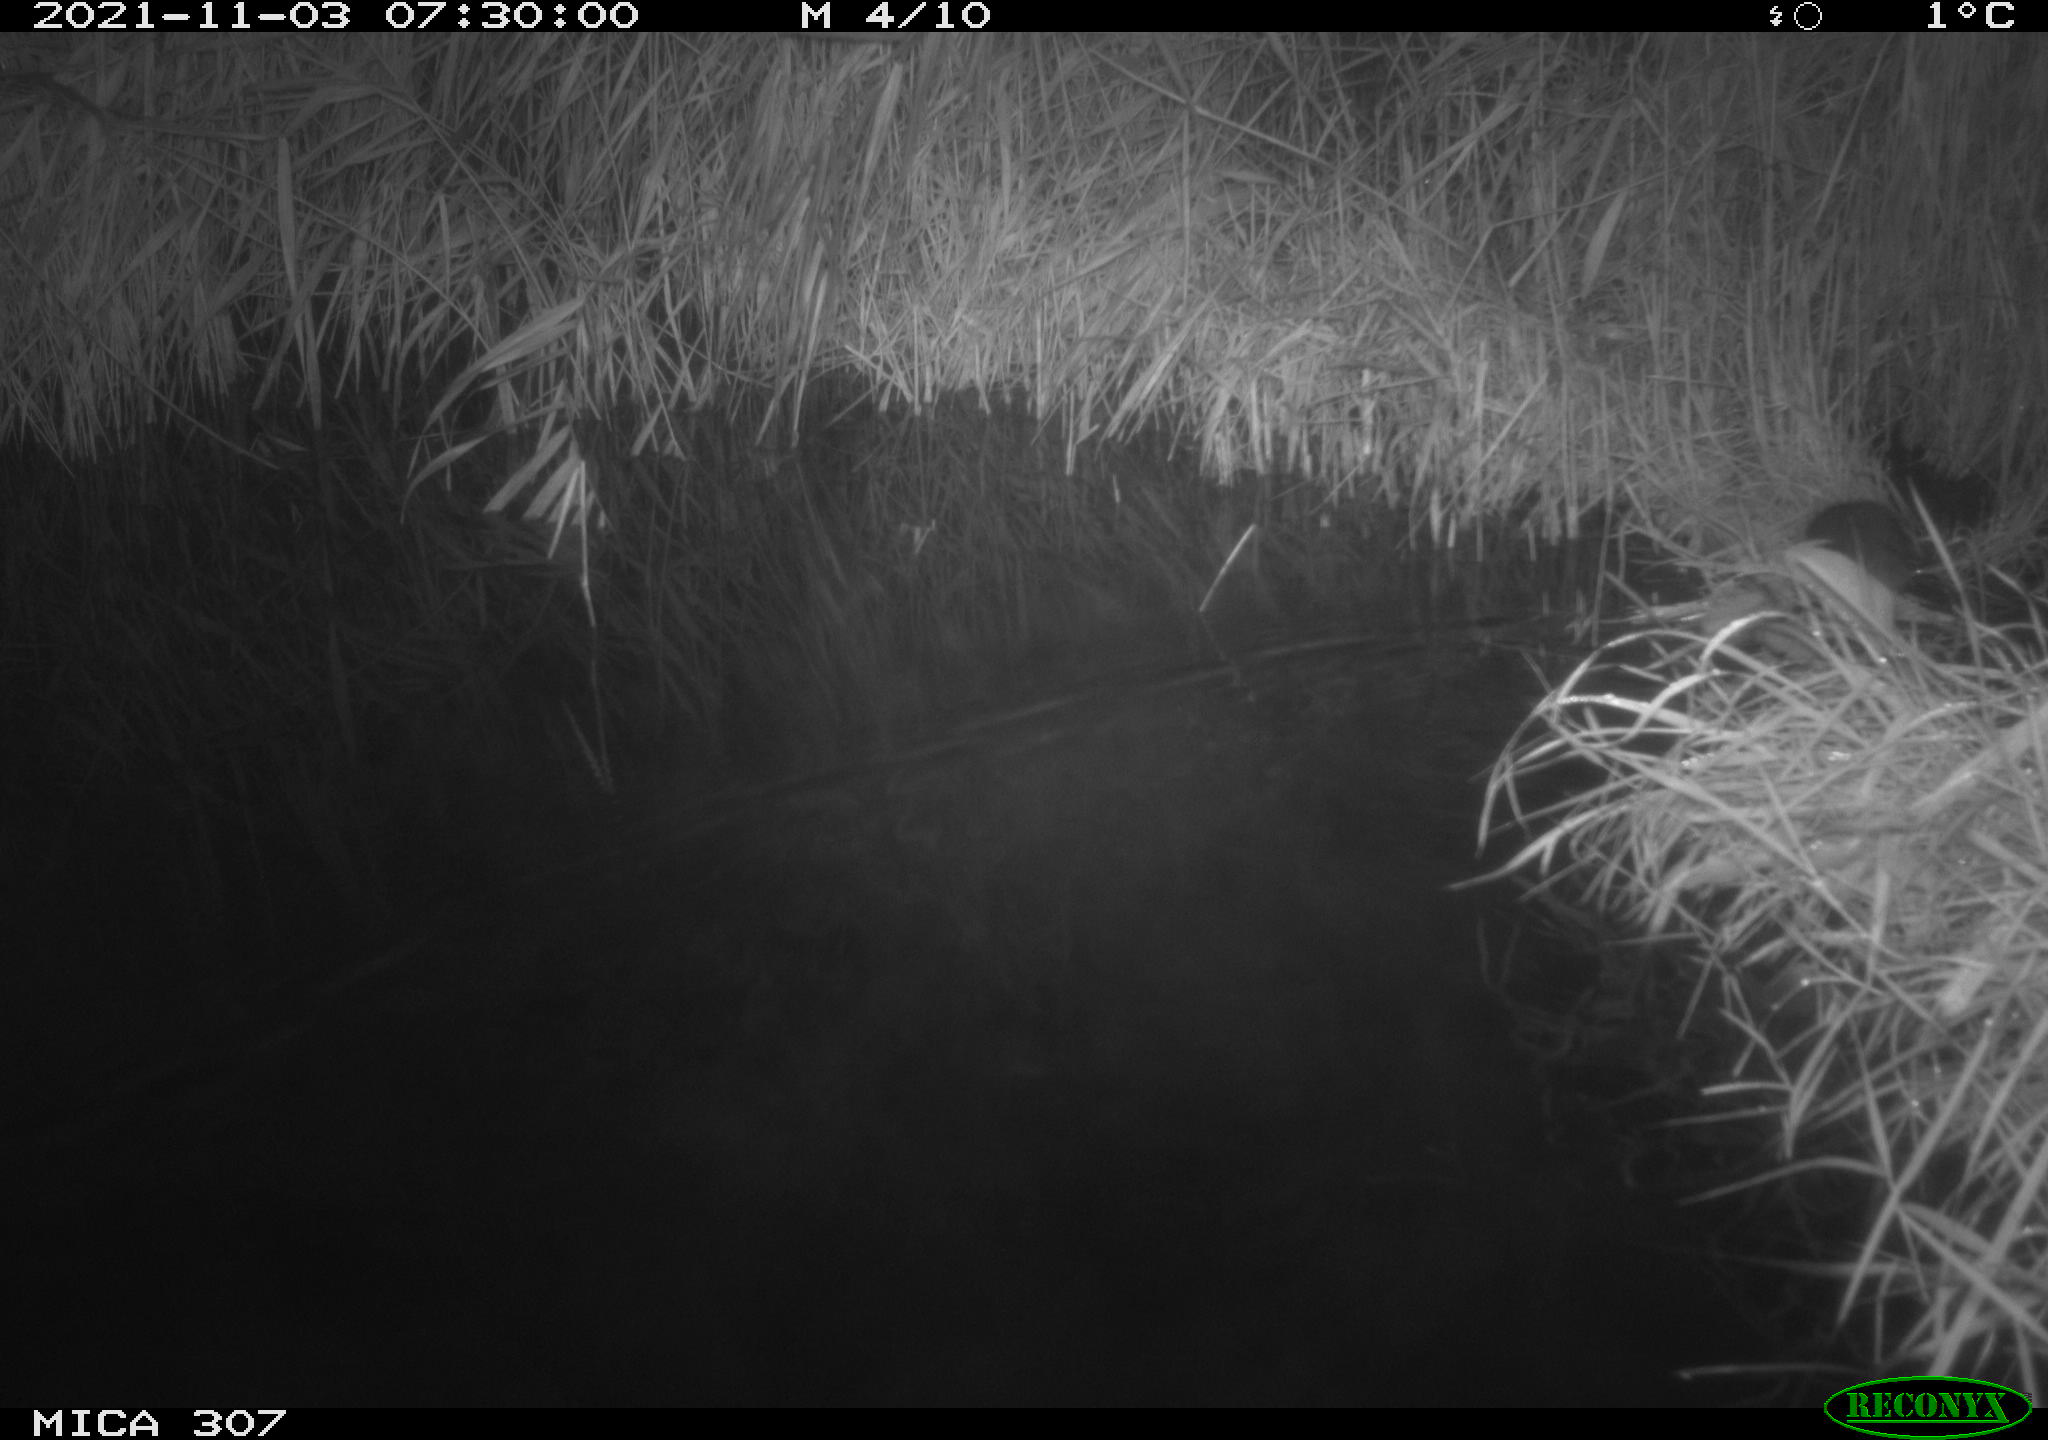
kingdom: Animalia
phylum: Chordata
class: Mammalia
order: Rodentia
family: Muridae
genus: Rattus
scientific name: Rattus norvegicus
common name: Brown rat
